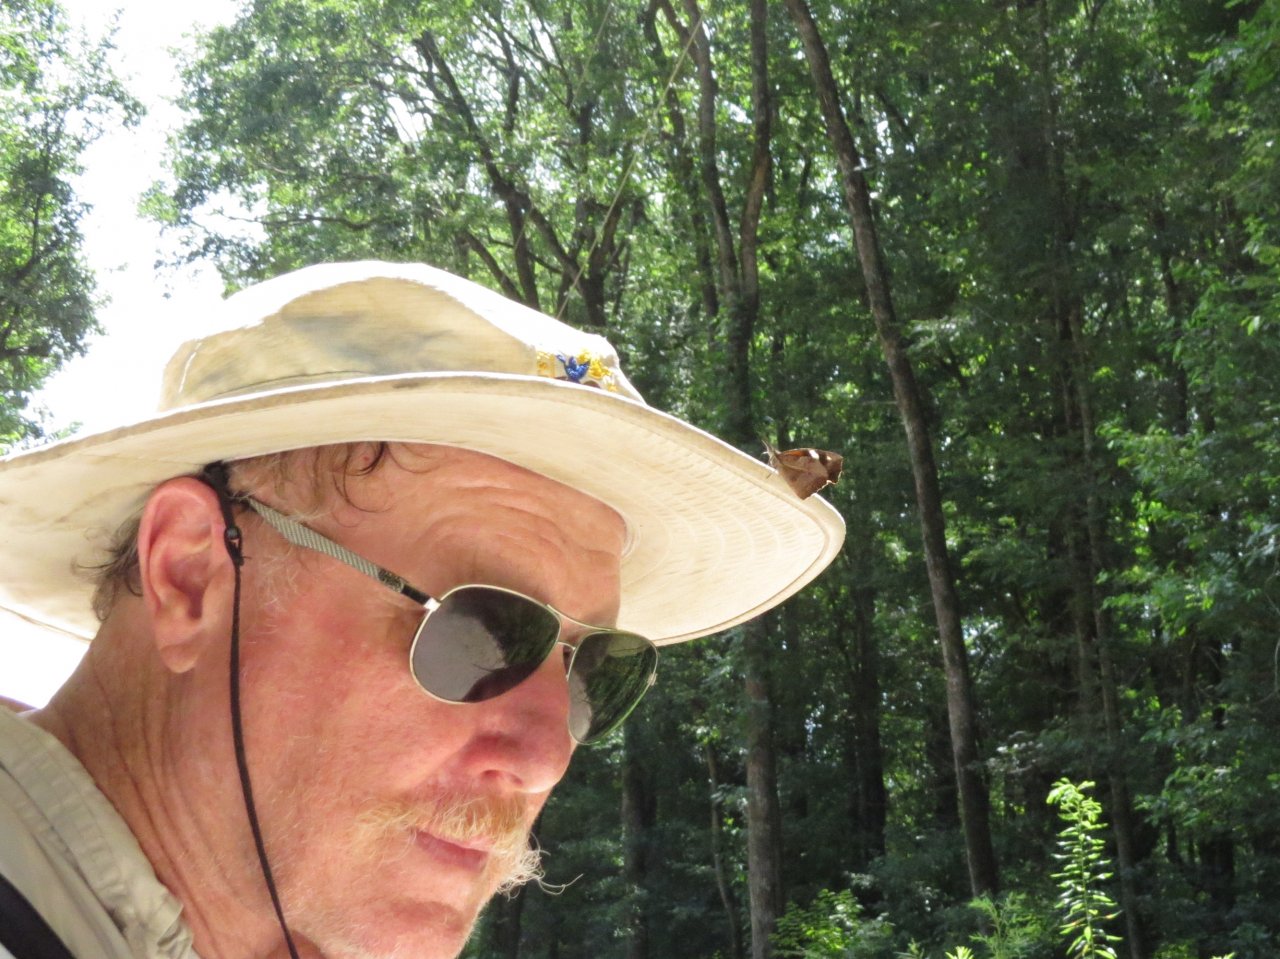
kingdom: Animalia
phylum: Arthropoda
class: Insecta
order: Lepidoptera
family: Nymphalidae
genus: Libytheana
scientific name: Libytheana carinenta
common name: American Snout
